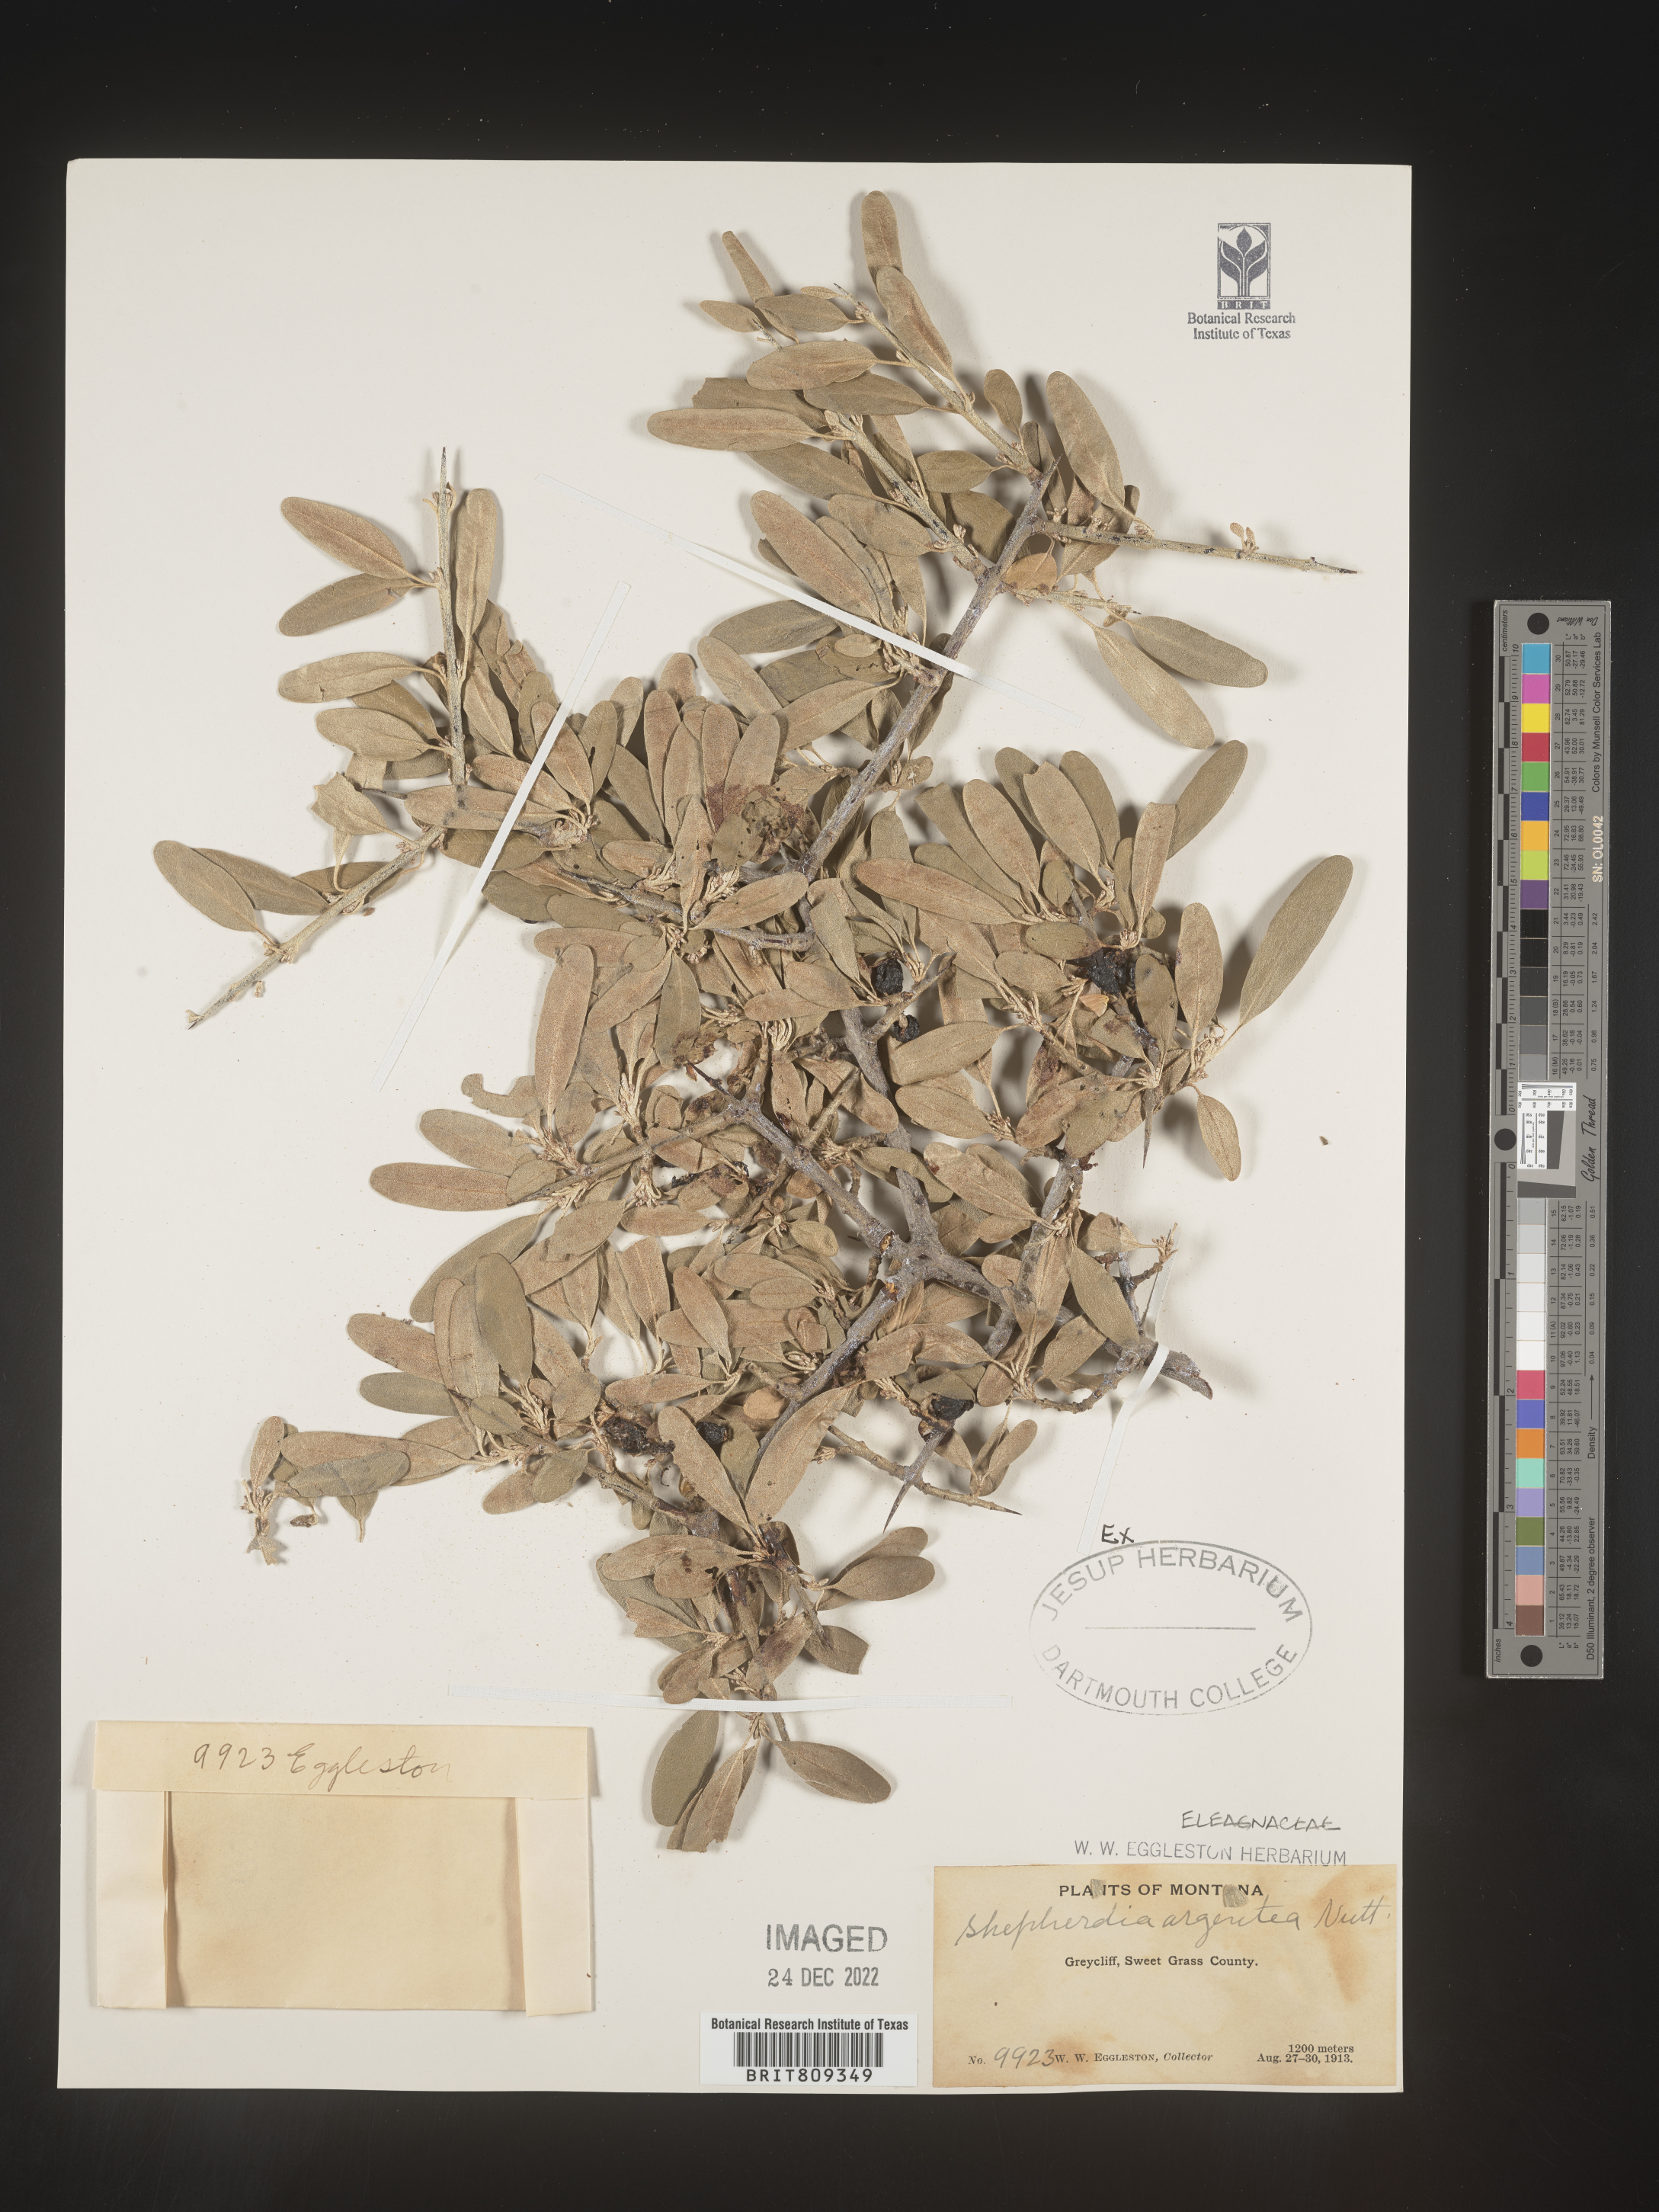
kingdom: Plantae
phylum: Tracheophyta
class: Magnoliopsida
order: Rosales
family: Elaeagnaceae
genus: Shepherdia
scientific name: Shepherdia argentea
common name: Silver buffaloberry
